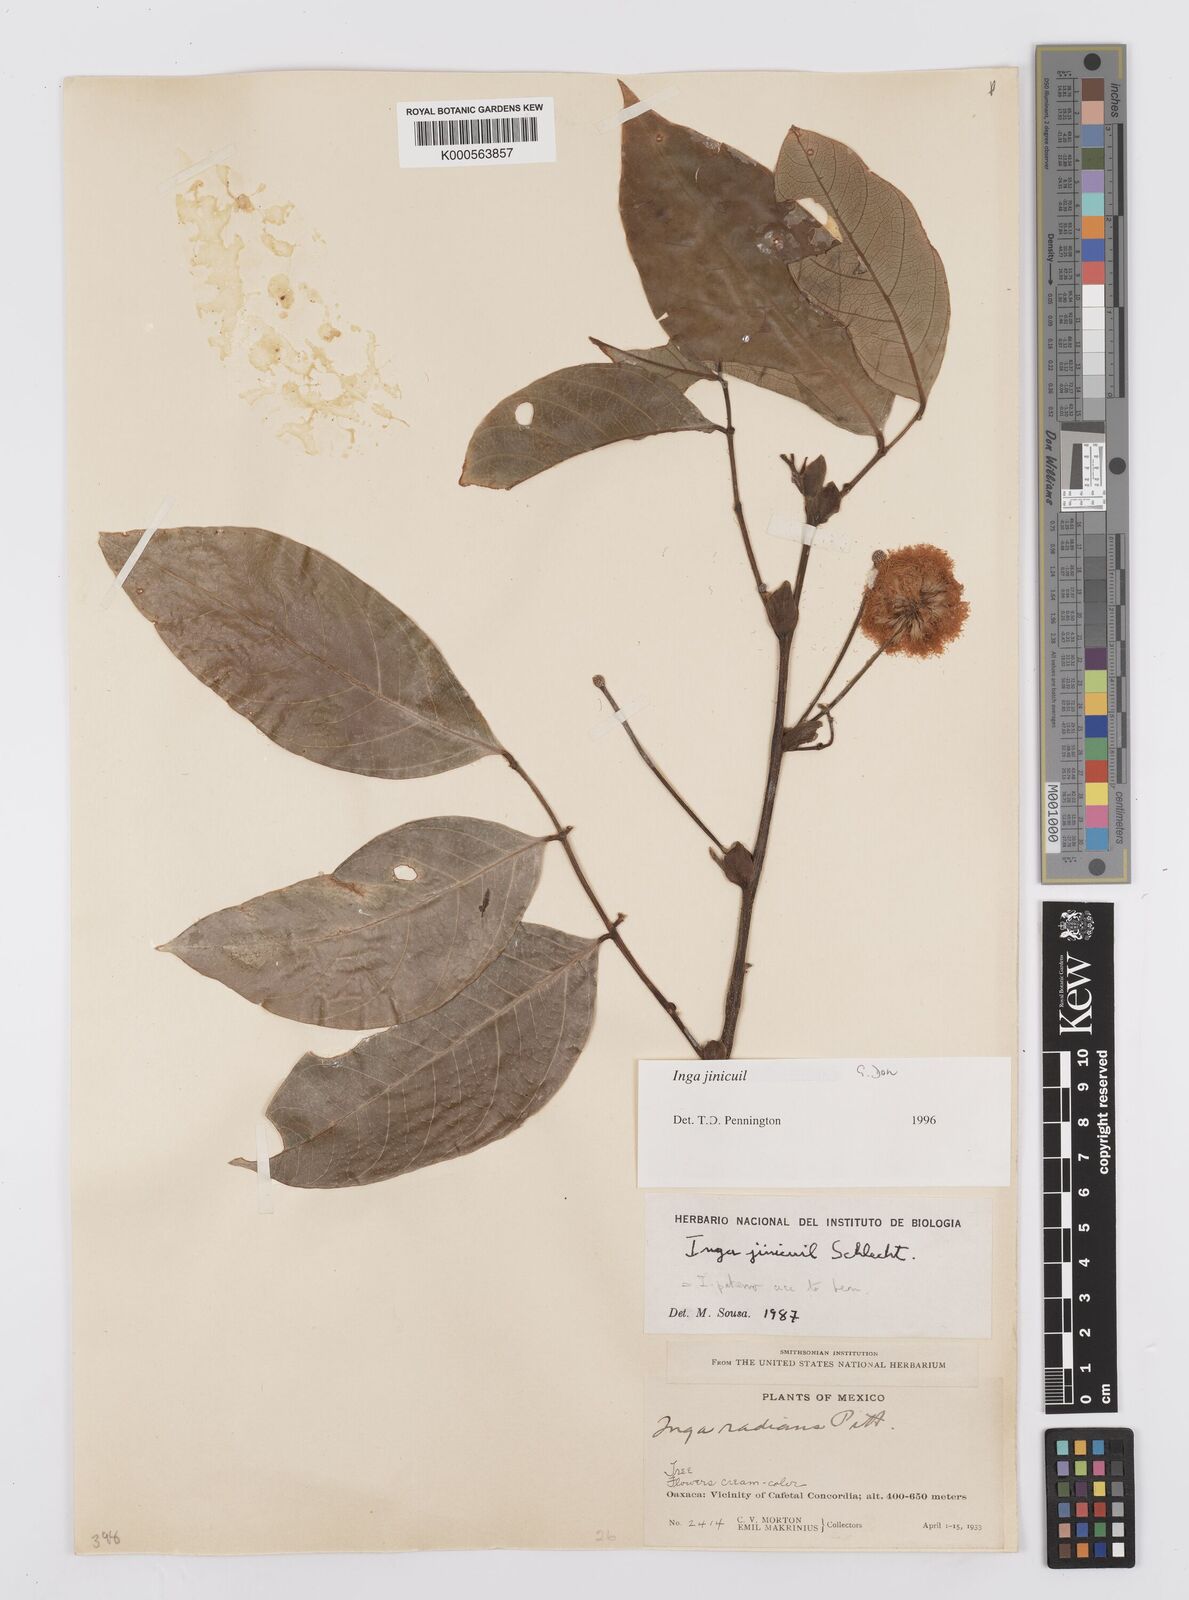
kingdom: Plantae
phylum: Tracheophyta
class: Magnoliopsida
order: Fabales
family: Fabaceae
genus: Inga
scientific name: Inga inicuil
